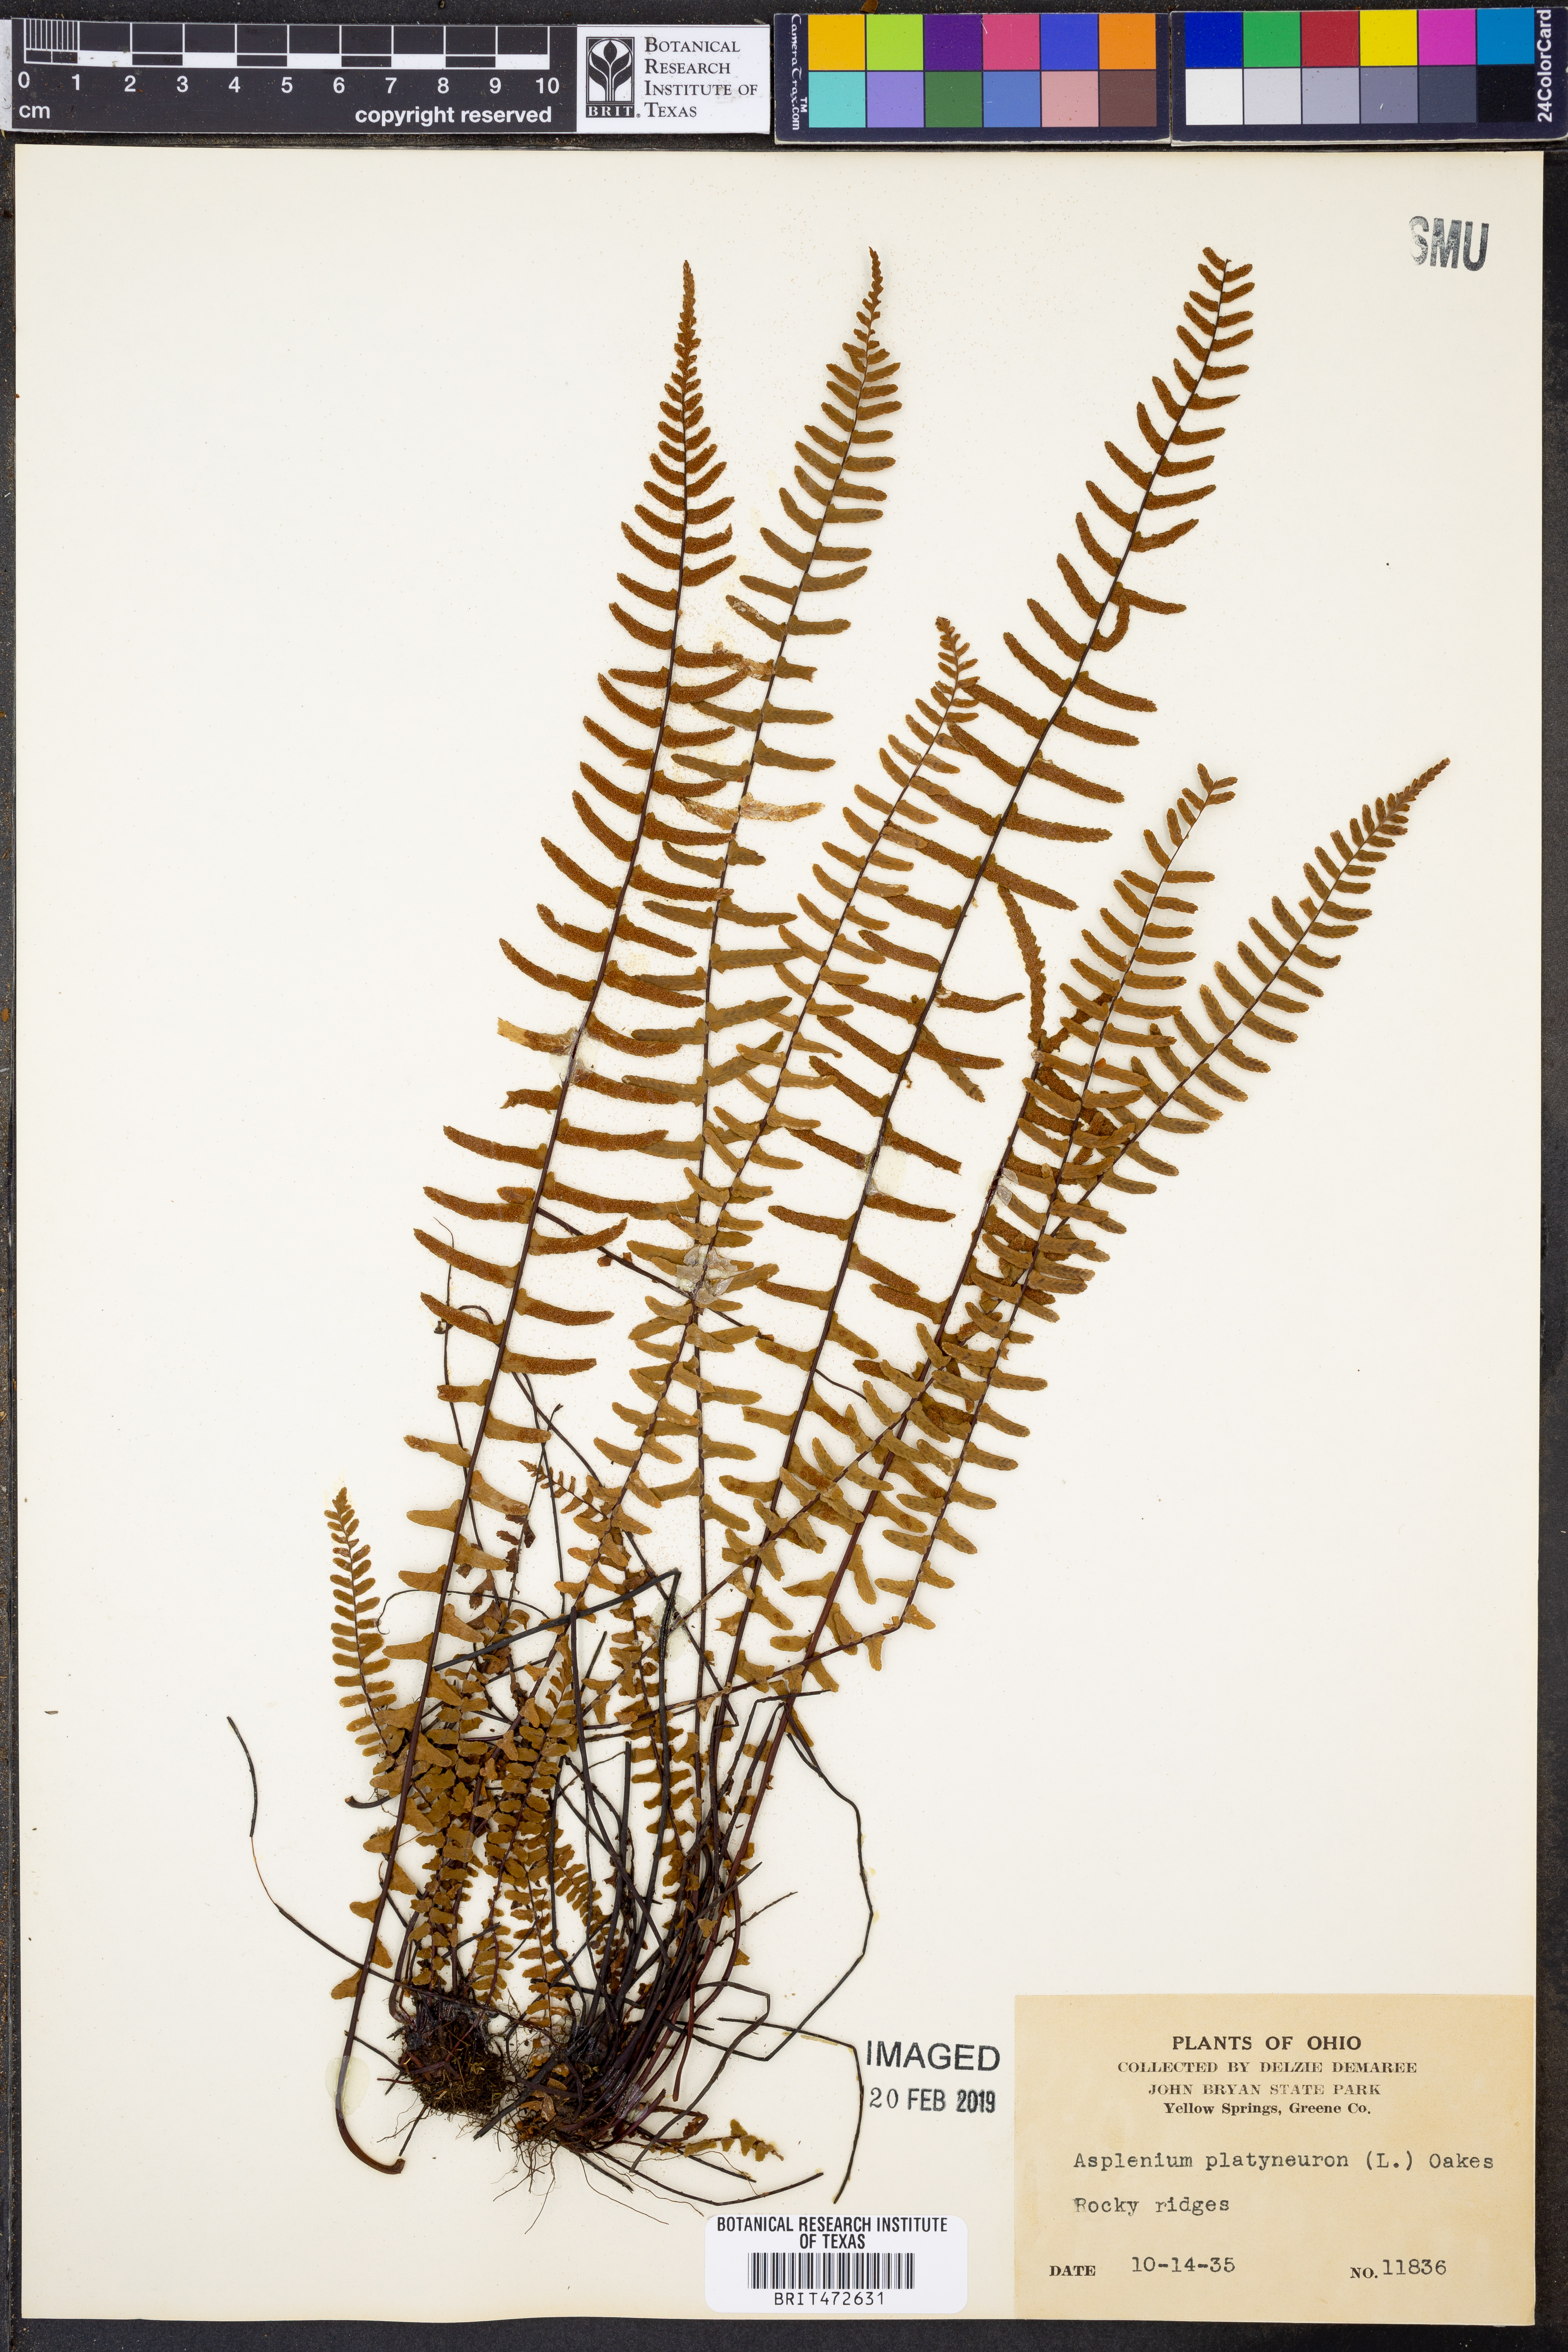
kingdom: Plantae
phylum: Tracheophyta
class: Polypodiopsida
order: Polypodiales
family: Aspleniaceae
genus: Asplenium
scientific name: Asplenium platyneuron
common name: Ebony spleenwort
